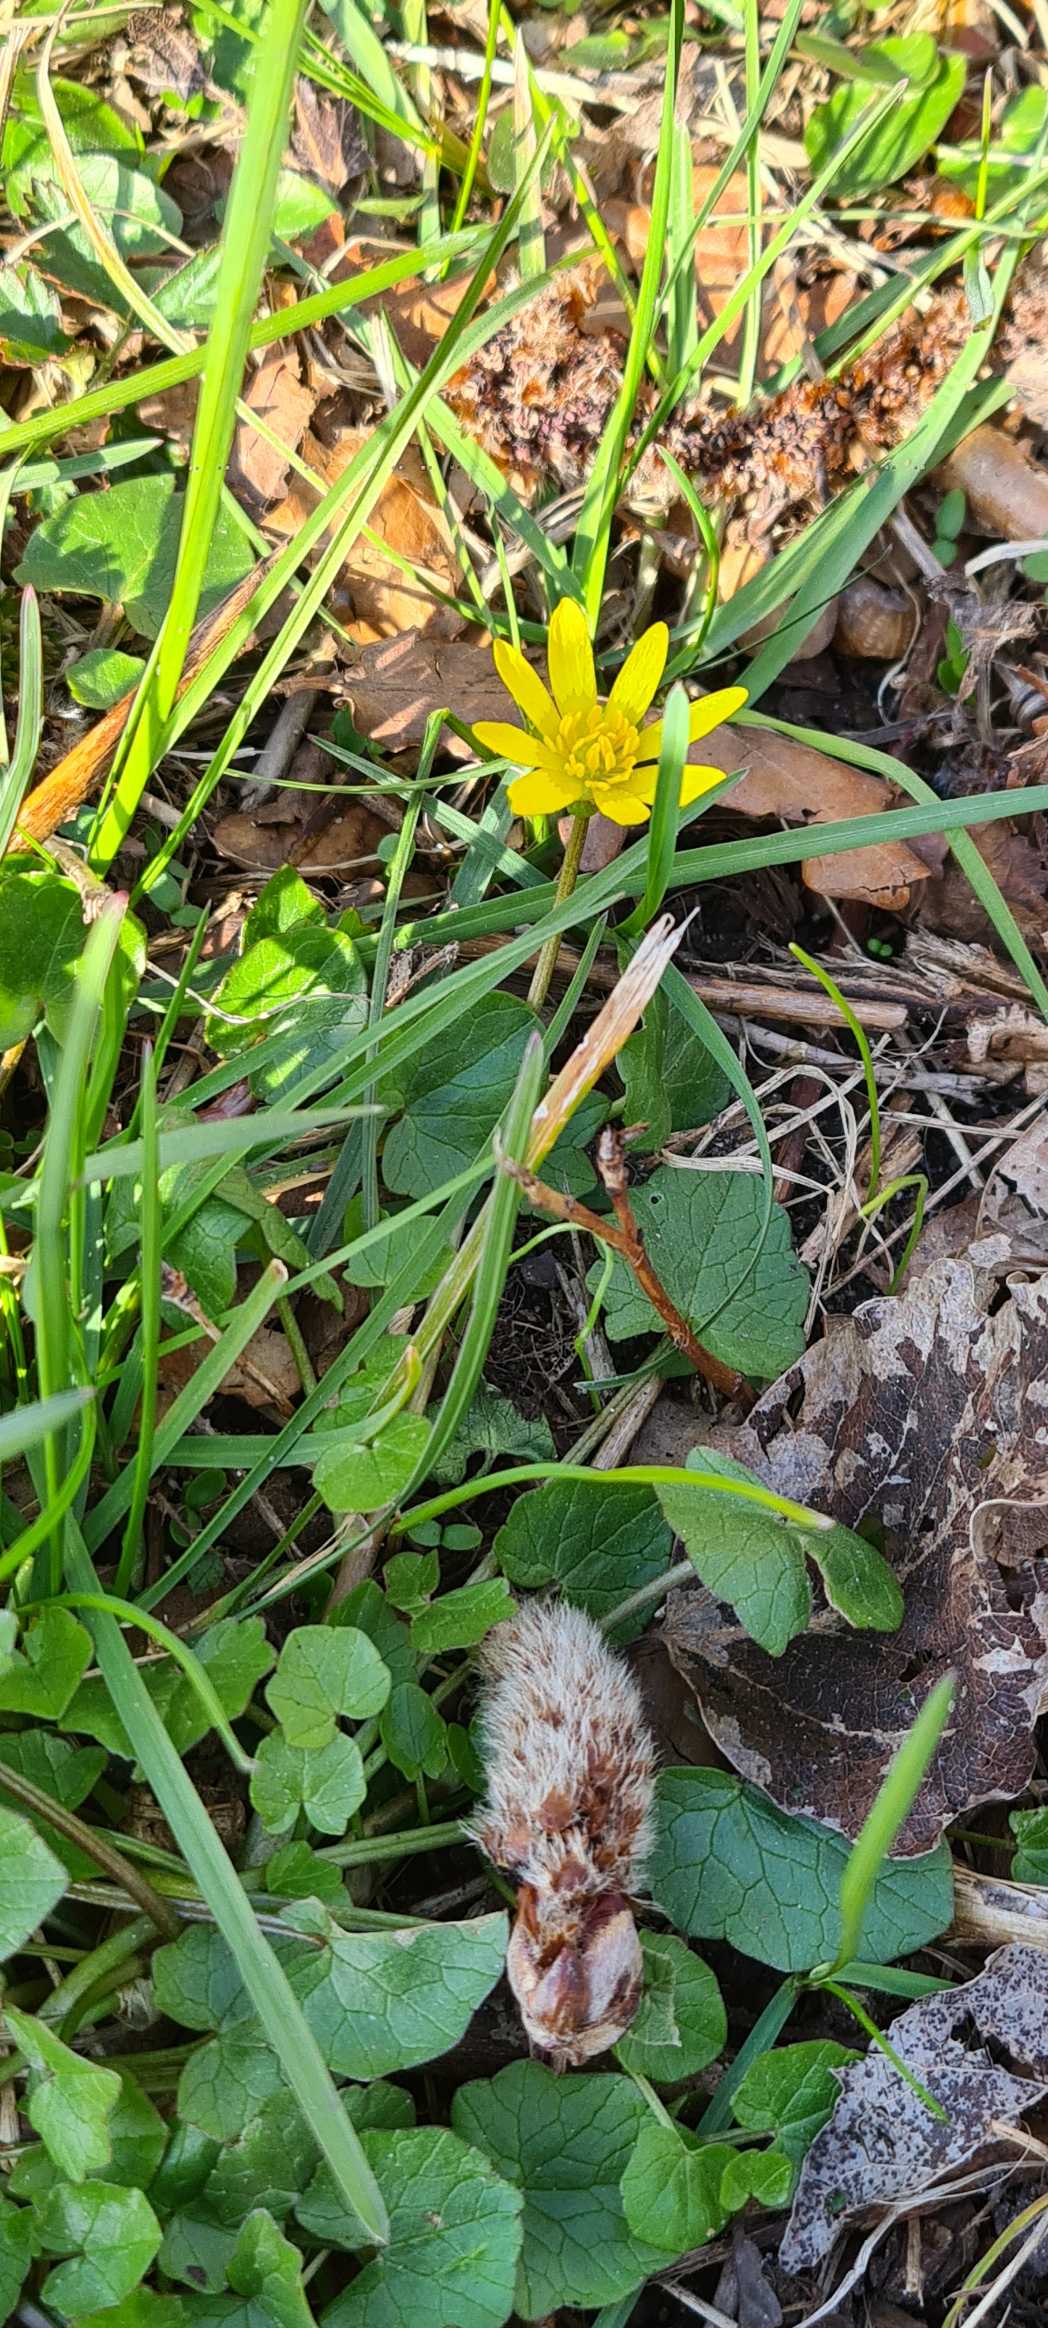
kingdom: Plantae
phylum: Tracheophyta
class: Magnoliopsida
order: Ranunculales
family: Ranunculaceae
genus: Ficaria
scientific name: Ficaria verna
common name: Vorterod
